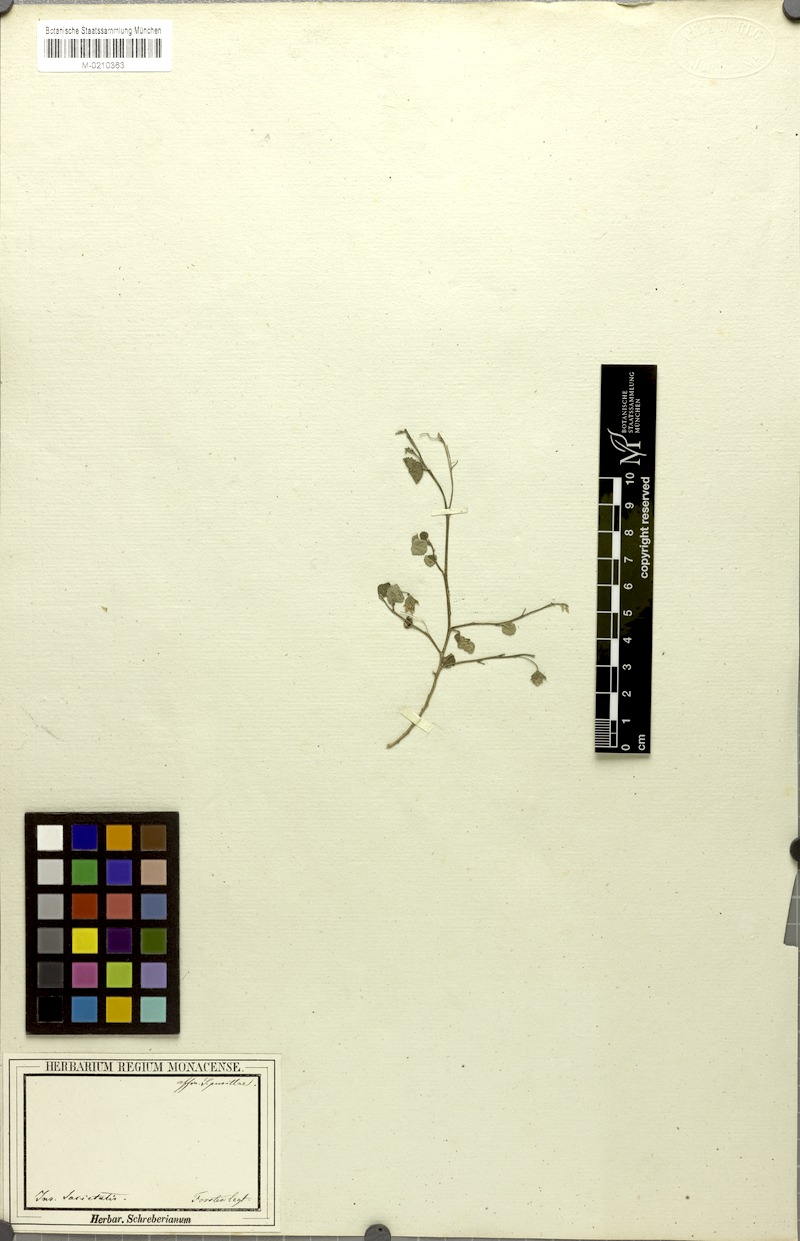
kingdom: Plantae
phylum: Tracheophyta
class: Magnoliopsida
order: Malvales
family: Malvaceae
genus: Sida
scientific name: Sida
